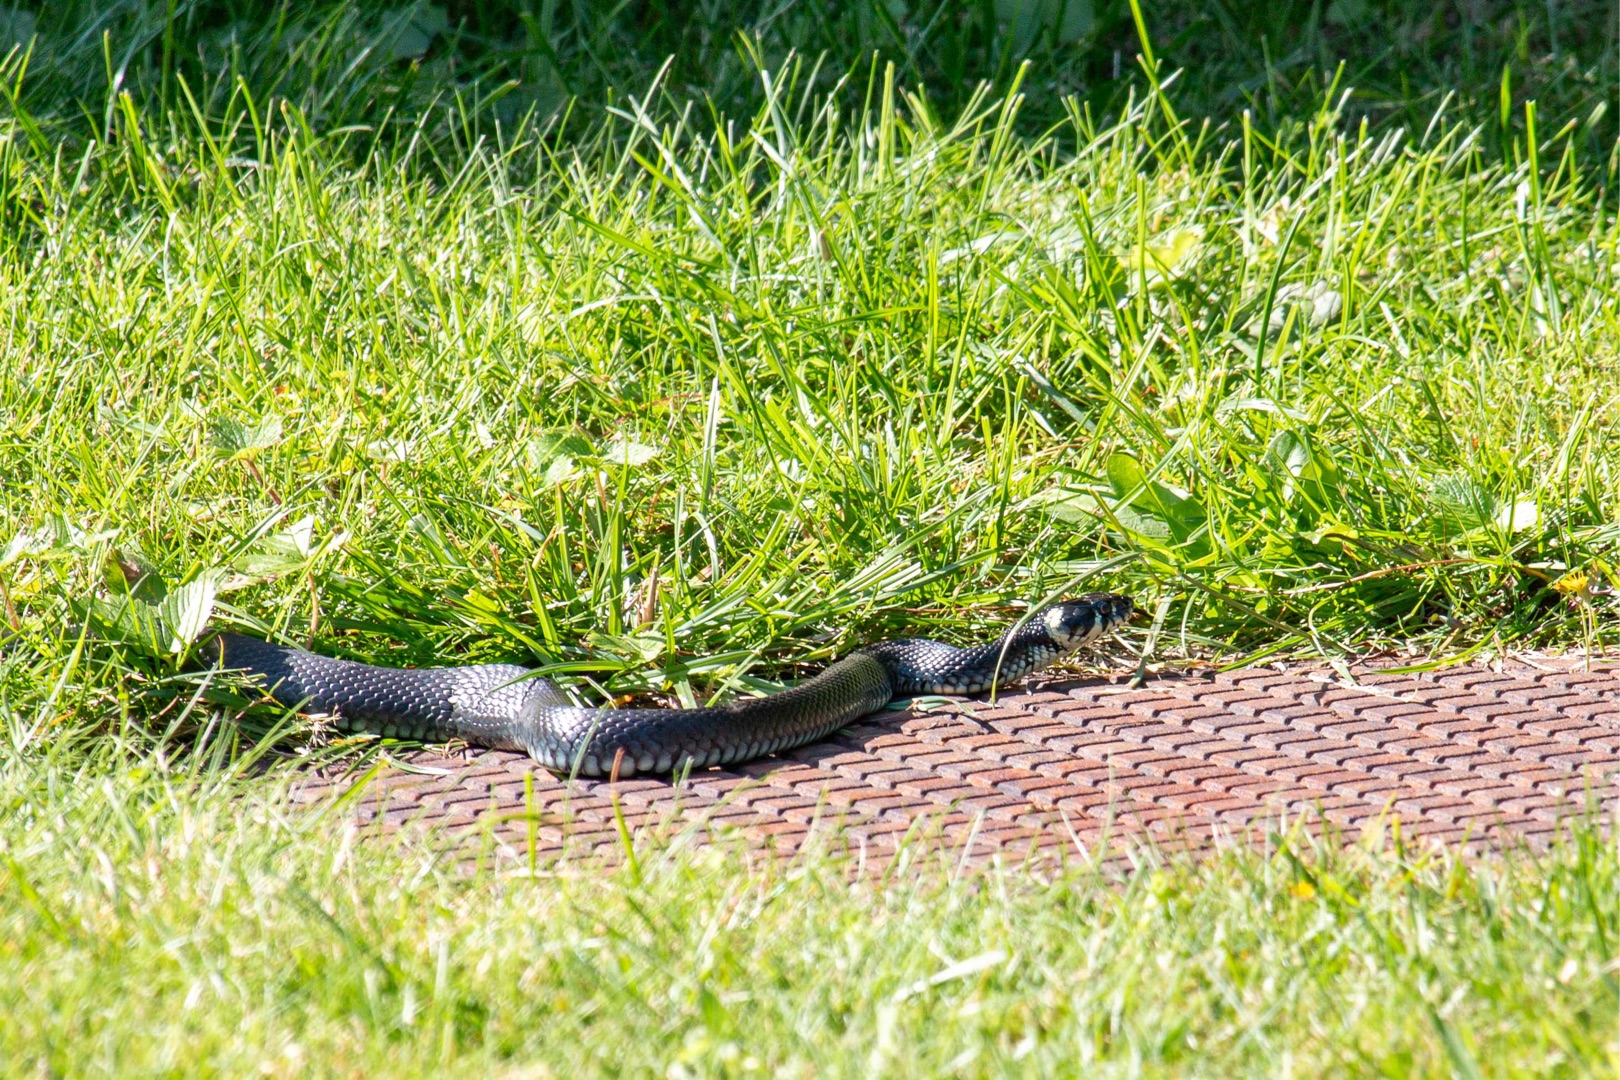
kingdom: Animalia
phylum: Chordata
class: Squamata
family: Colubridae
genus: Natrix
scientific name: Natrix natrix
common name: Snog
